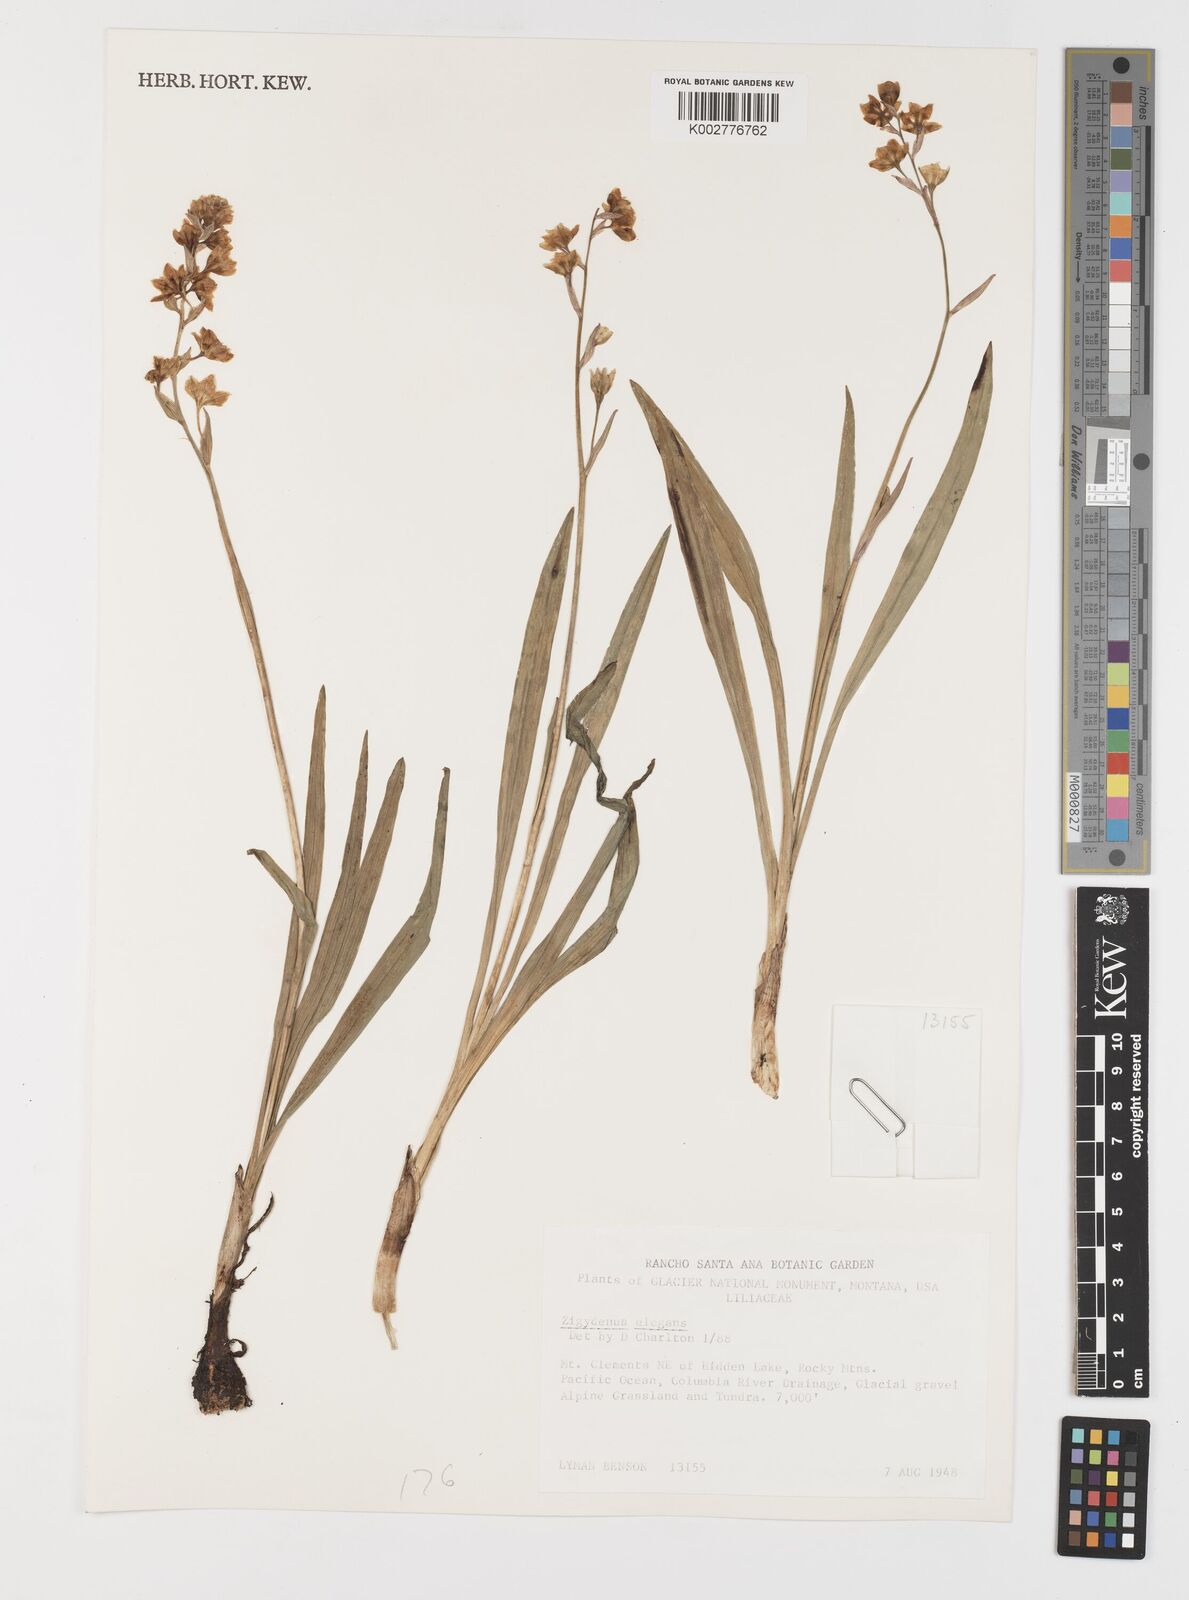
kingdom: Plantae
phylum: Tracheophyta
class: Liliopsida
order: Liliales
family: Melanthiaceae
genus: Anticlea
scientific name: Anticlea elegans
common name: Mountain death camas
